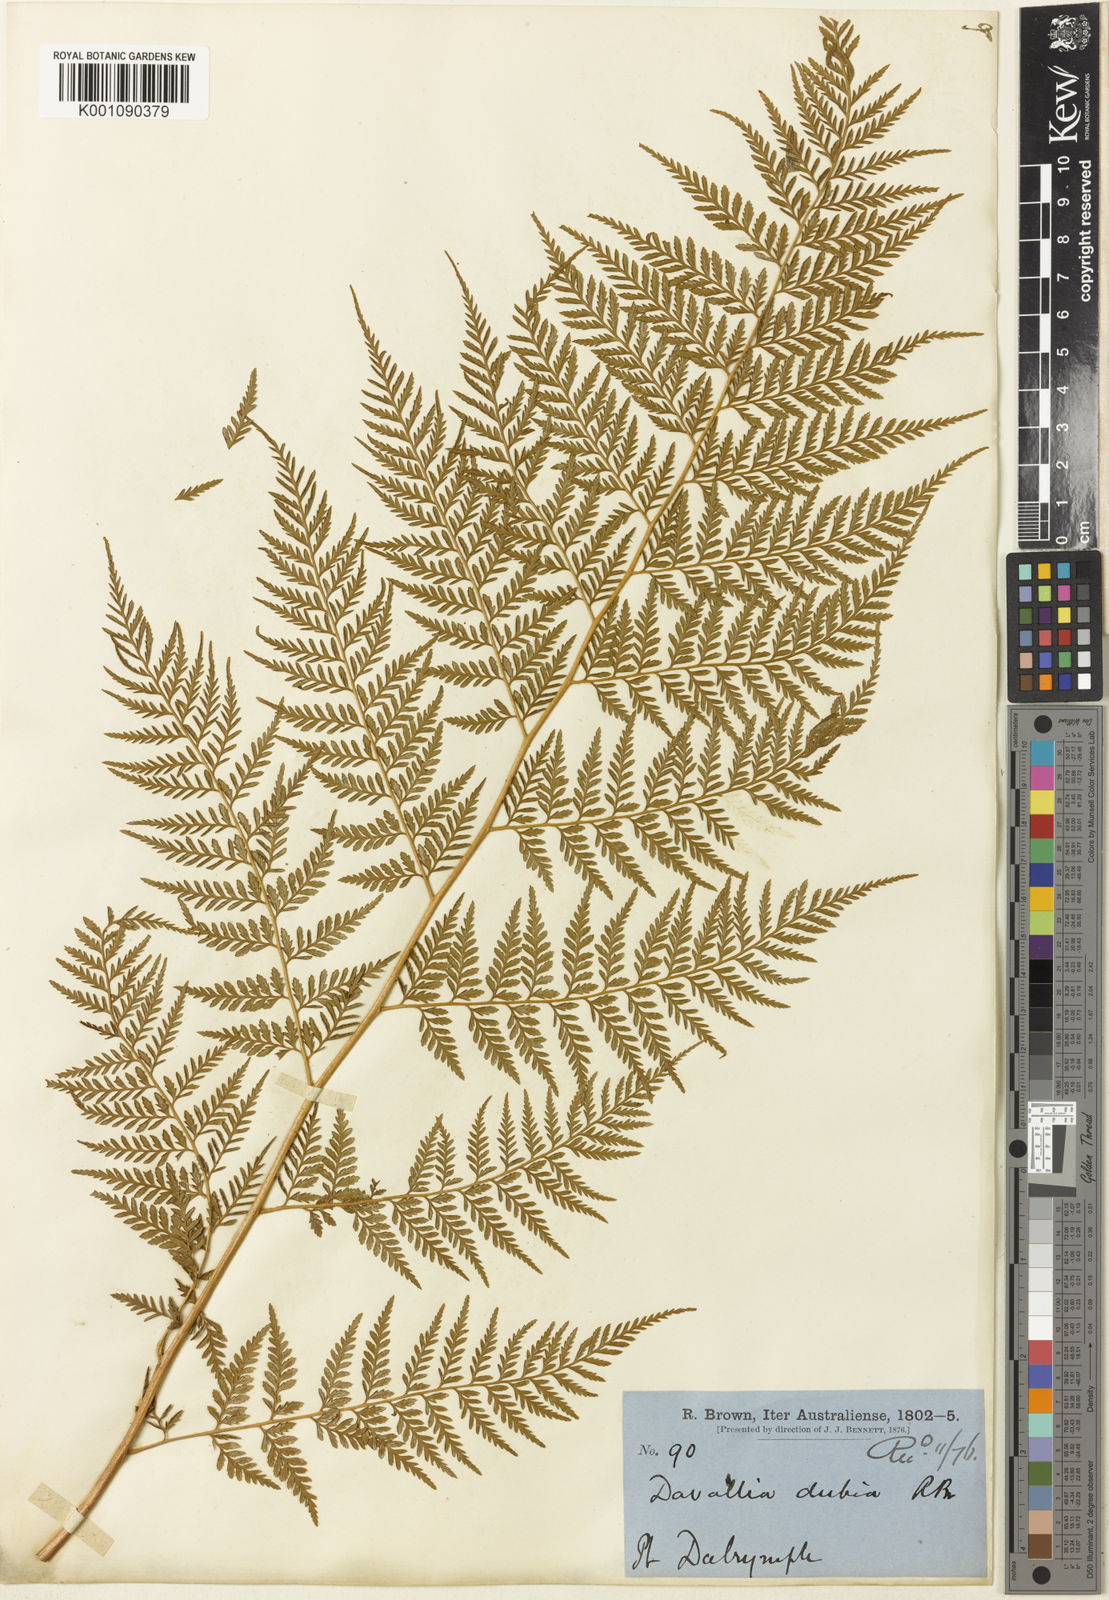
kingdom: Plantae
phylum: Tracheophyta
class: Polypodiopsida
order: Cyatheales
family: Dicksoniaceae
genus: Calochlaena
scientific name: Calochlaena dubia
